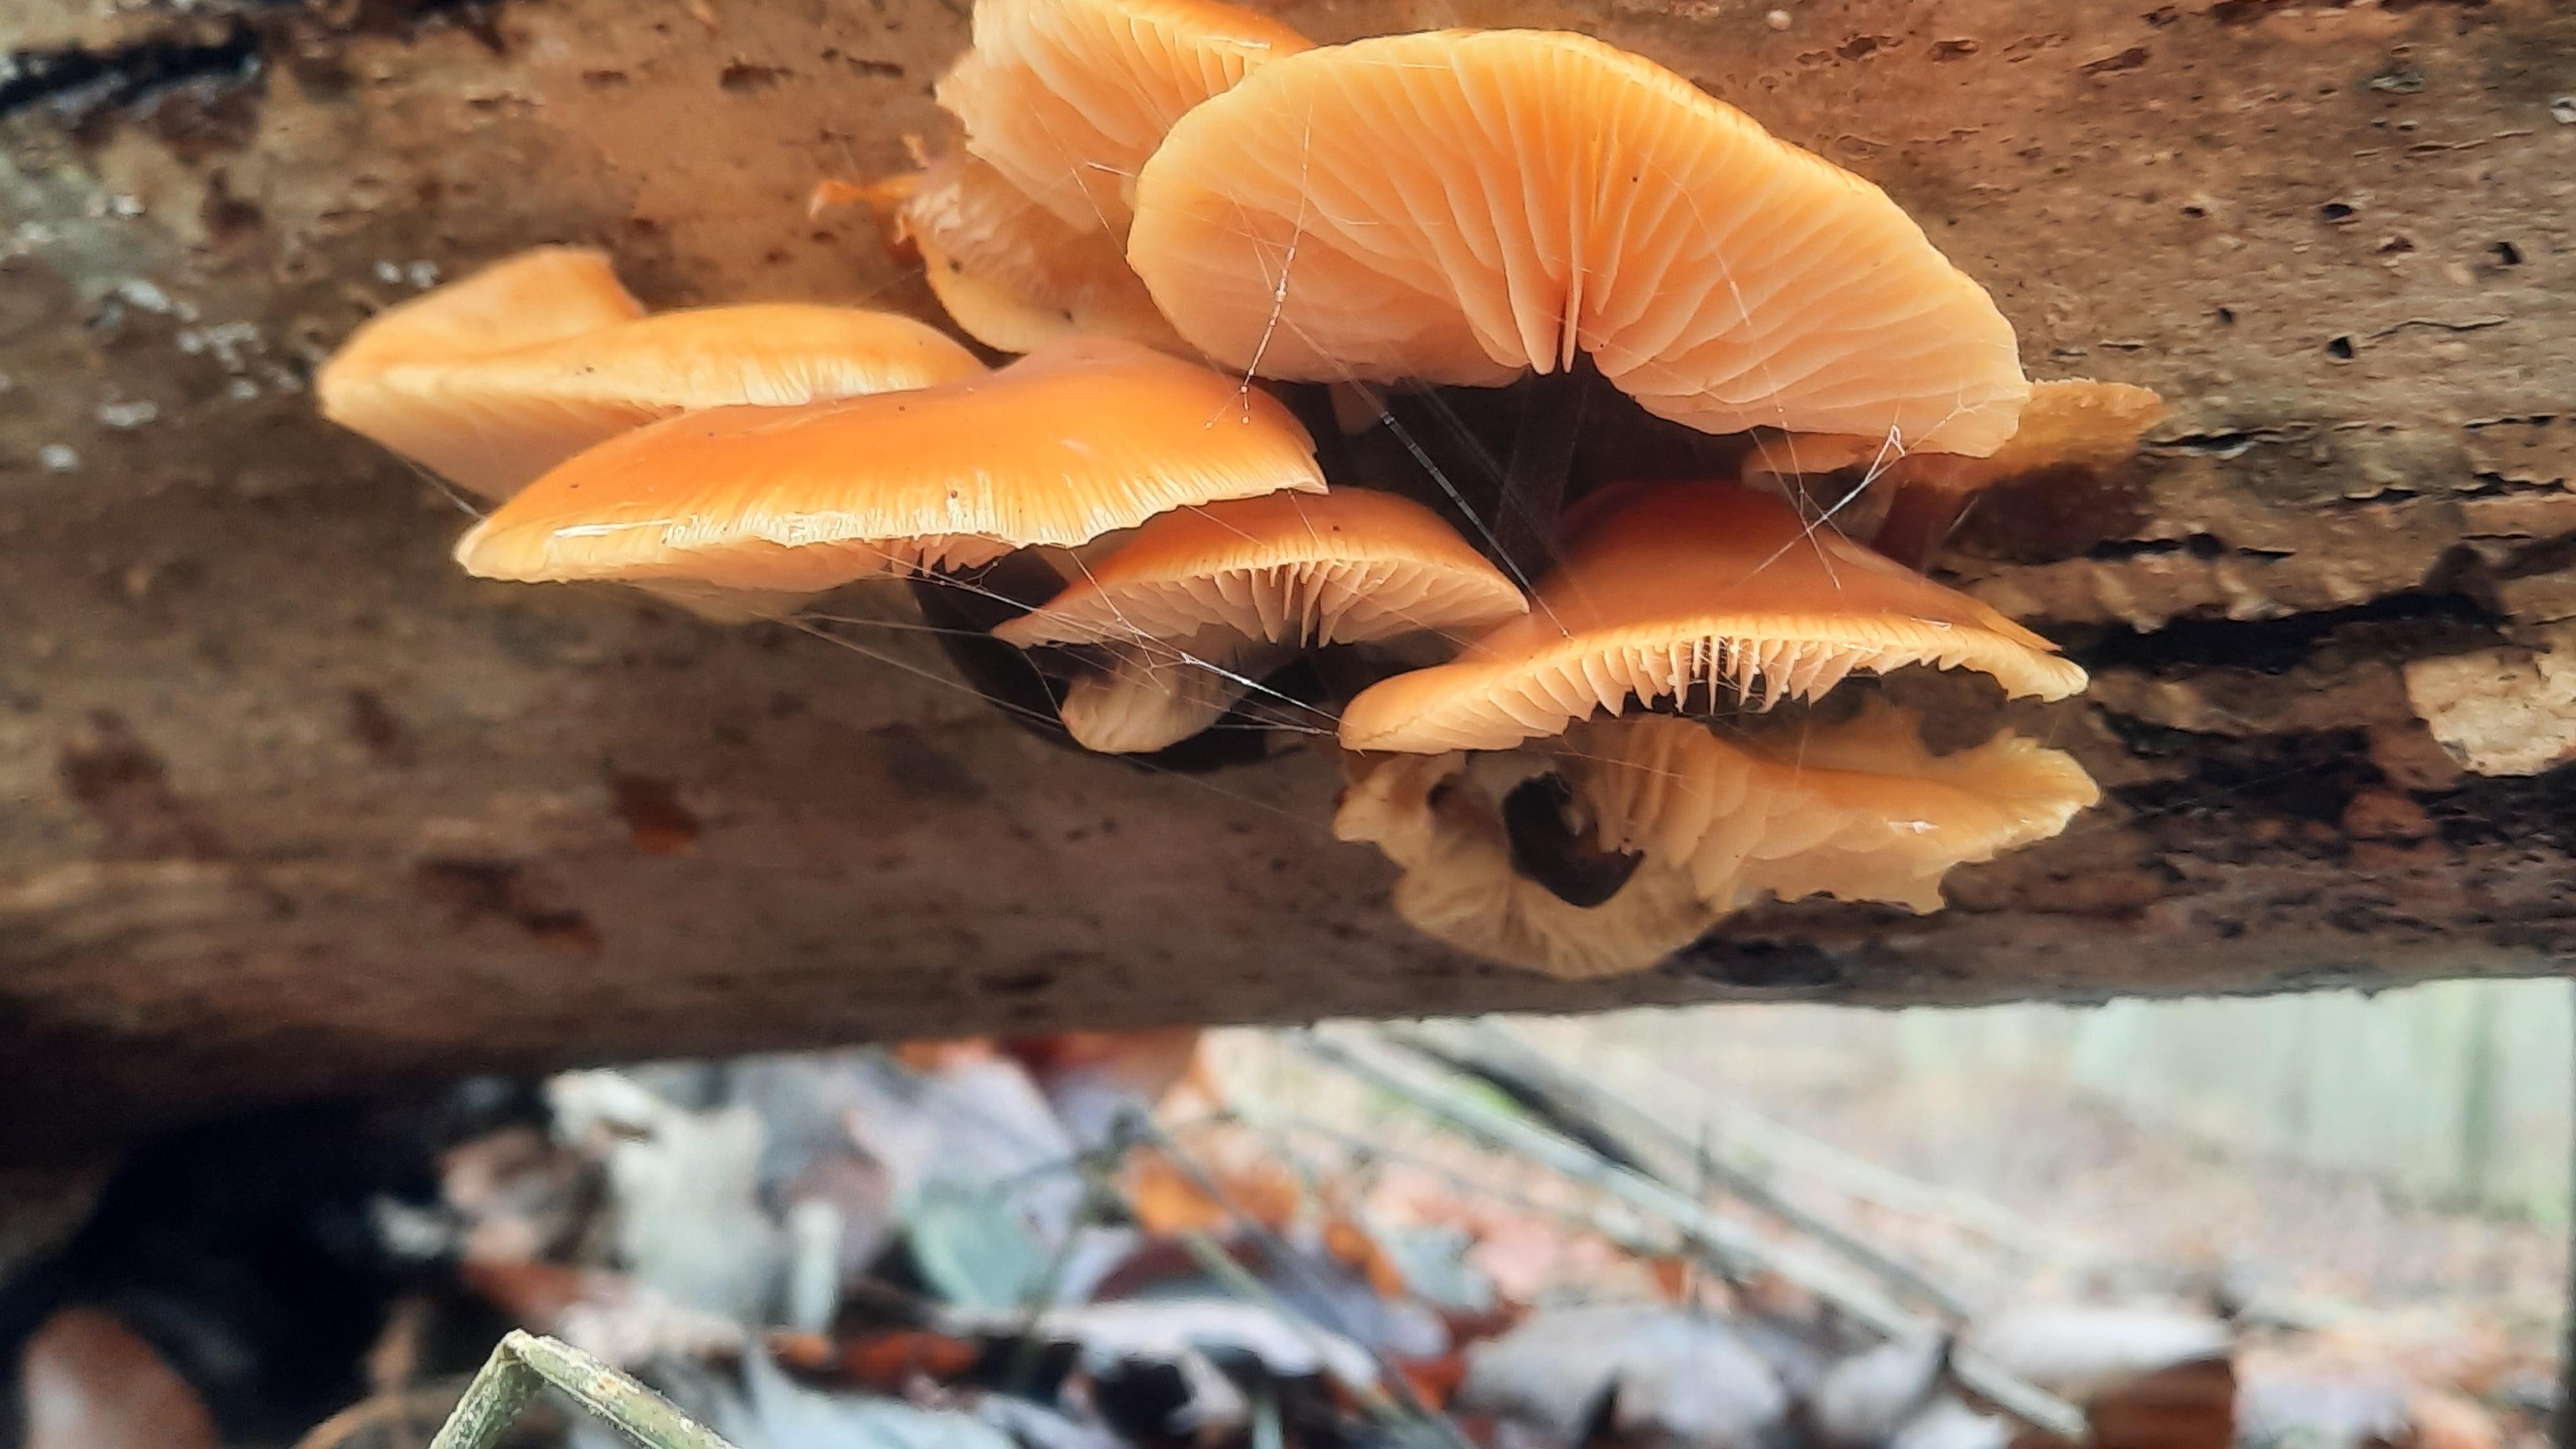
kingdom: Fungi
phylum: Basidiomycota
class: Agaricomycetes
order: Agaricales
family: Physalacriaceae
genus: Flammulina
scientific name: Flammulina
